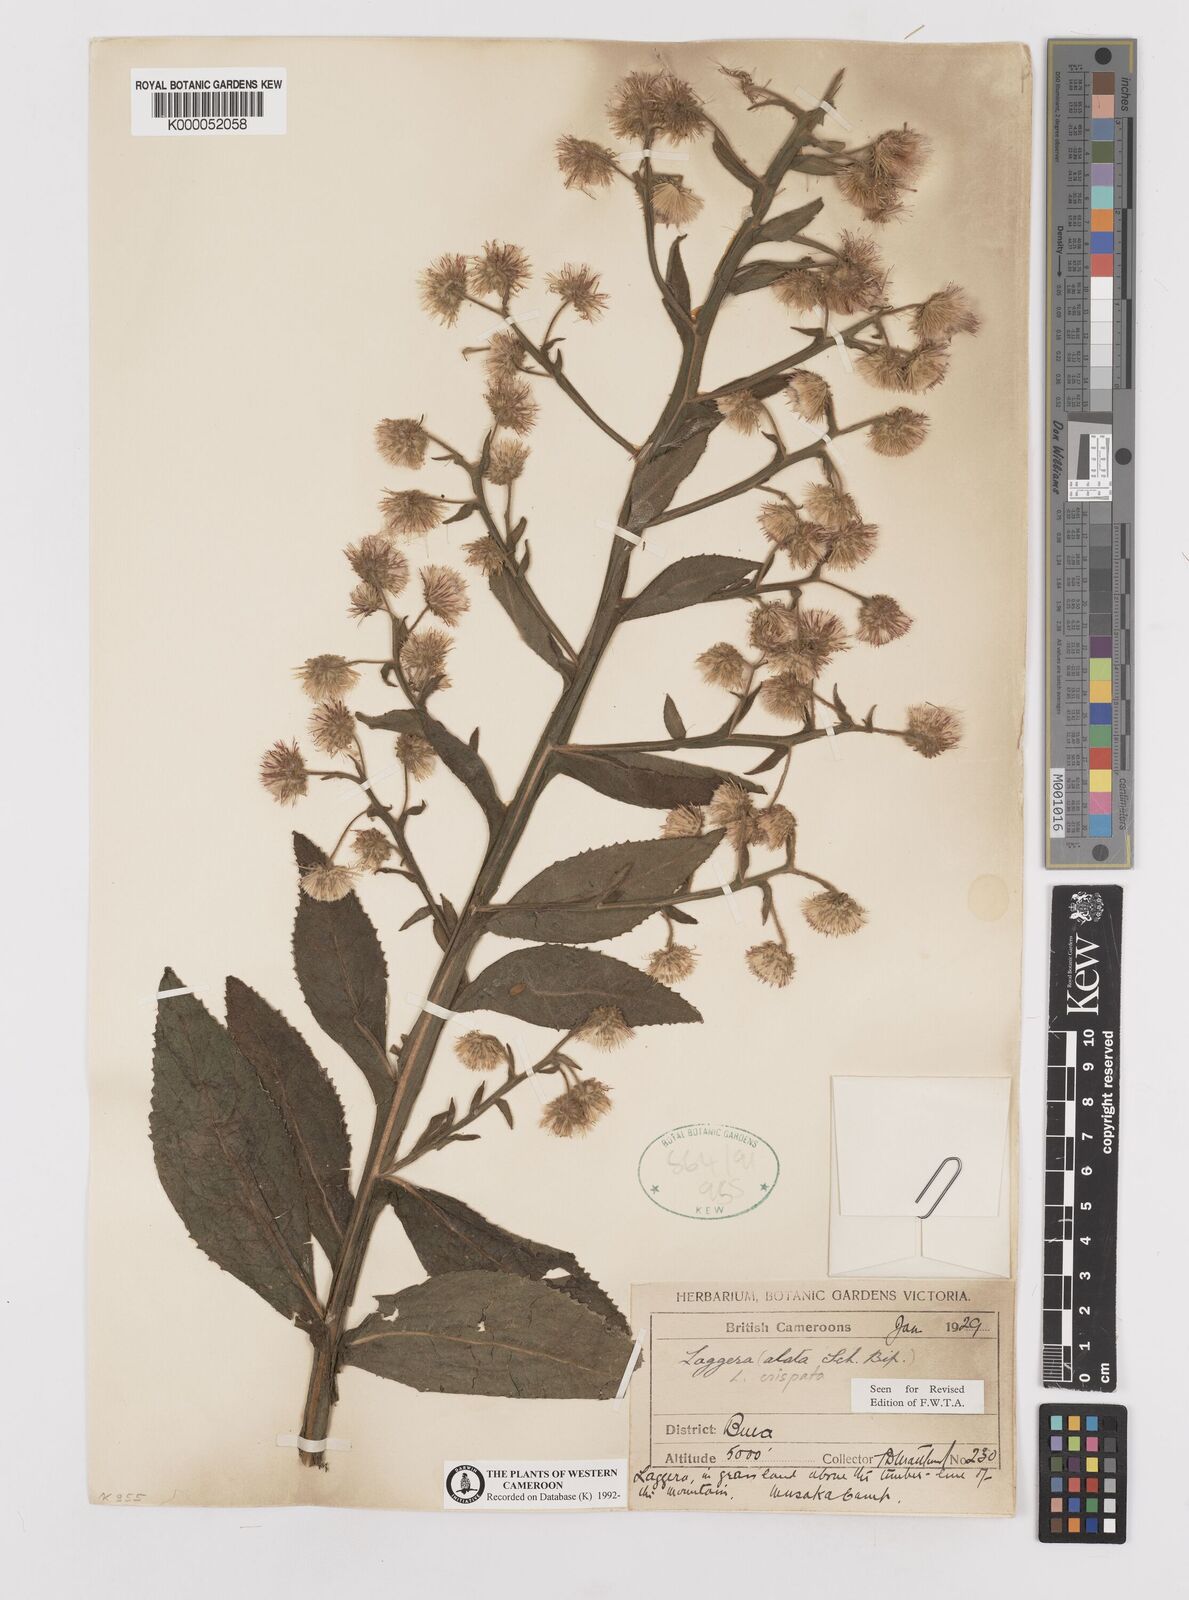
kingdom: Plantae
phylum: Tracheophyta
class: Magnoliopsida
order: Asterales
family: Asteraceae
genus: Laggera
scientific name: Laggera crispata
